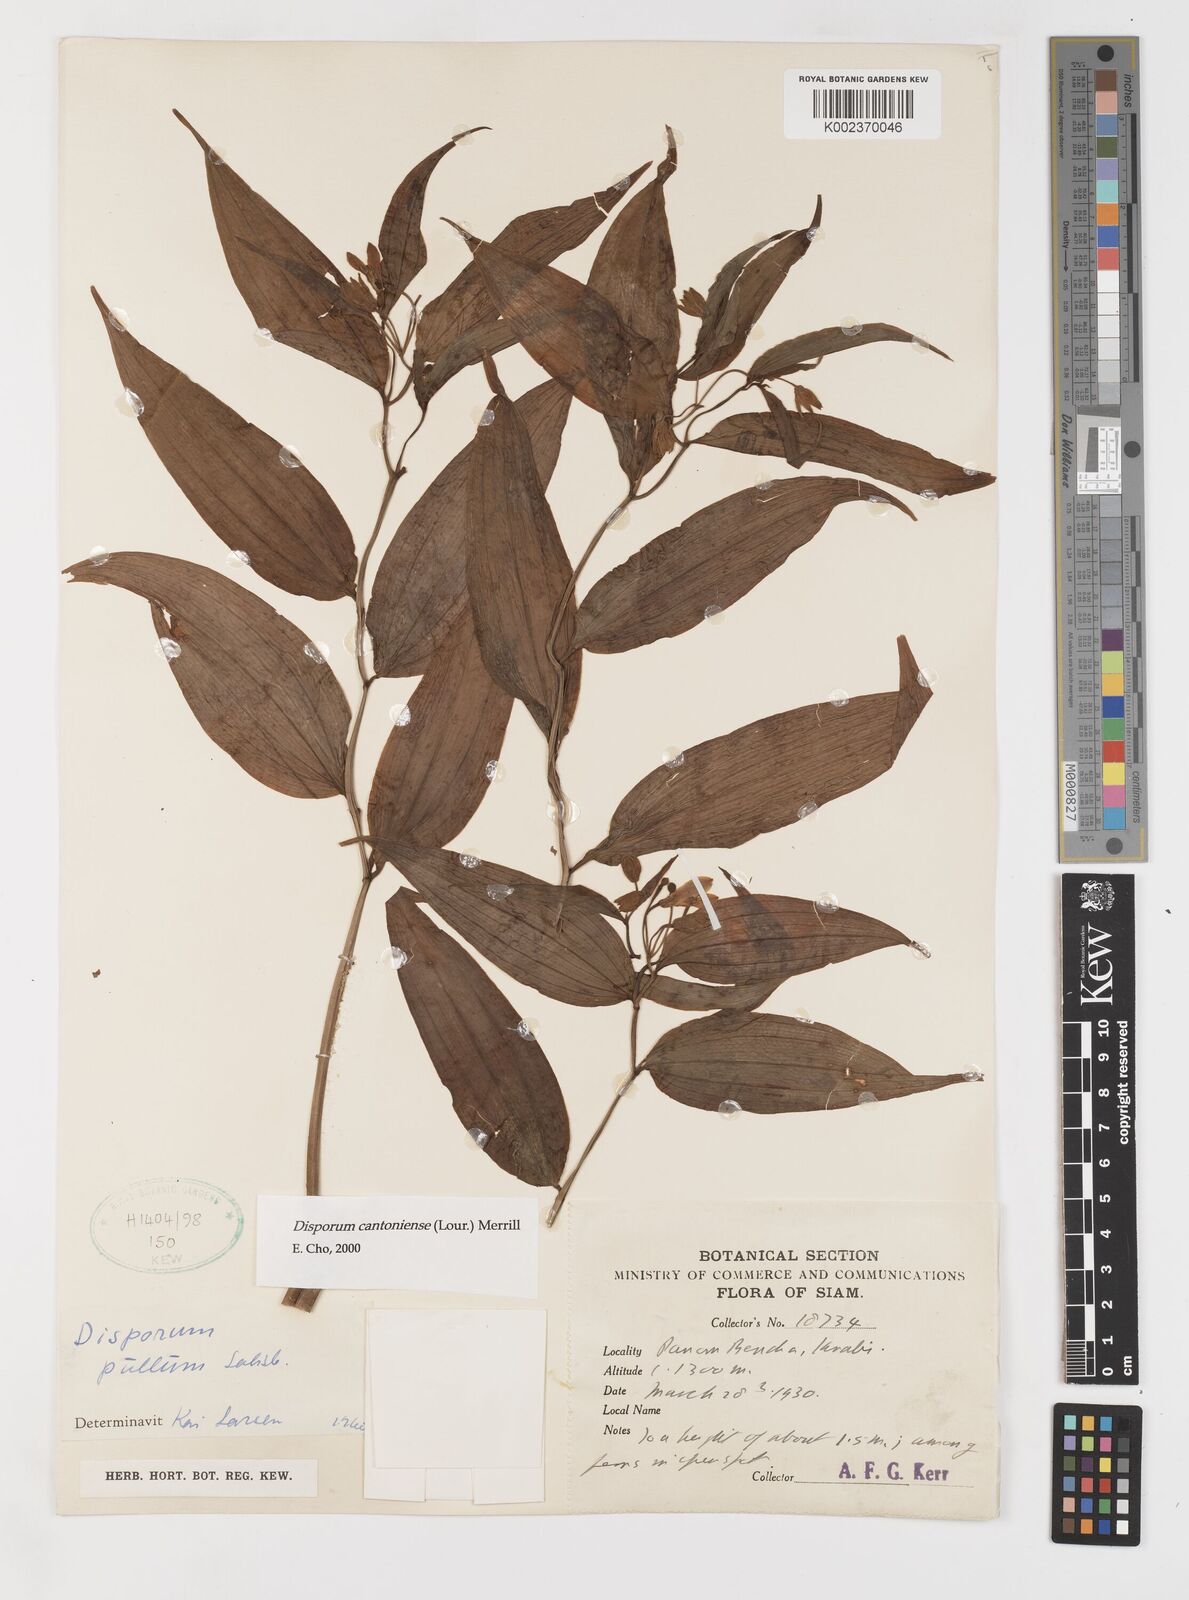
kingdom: Plantae
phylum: Tracheophyta
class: Liliopsida
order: Liliales
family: Colchicaceae
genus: Disporum
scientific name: Disporum cantoniense
